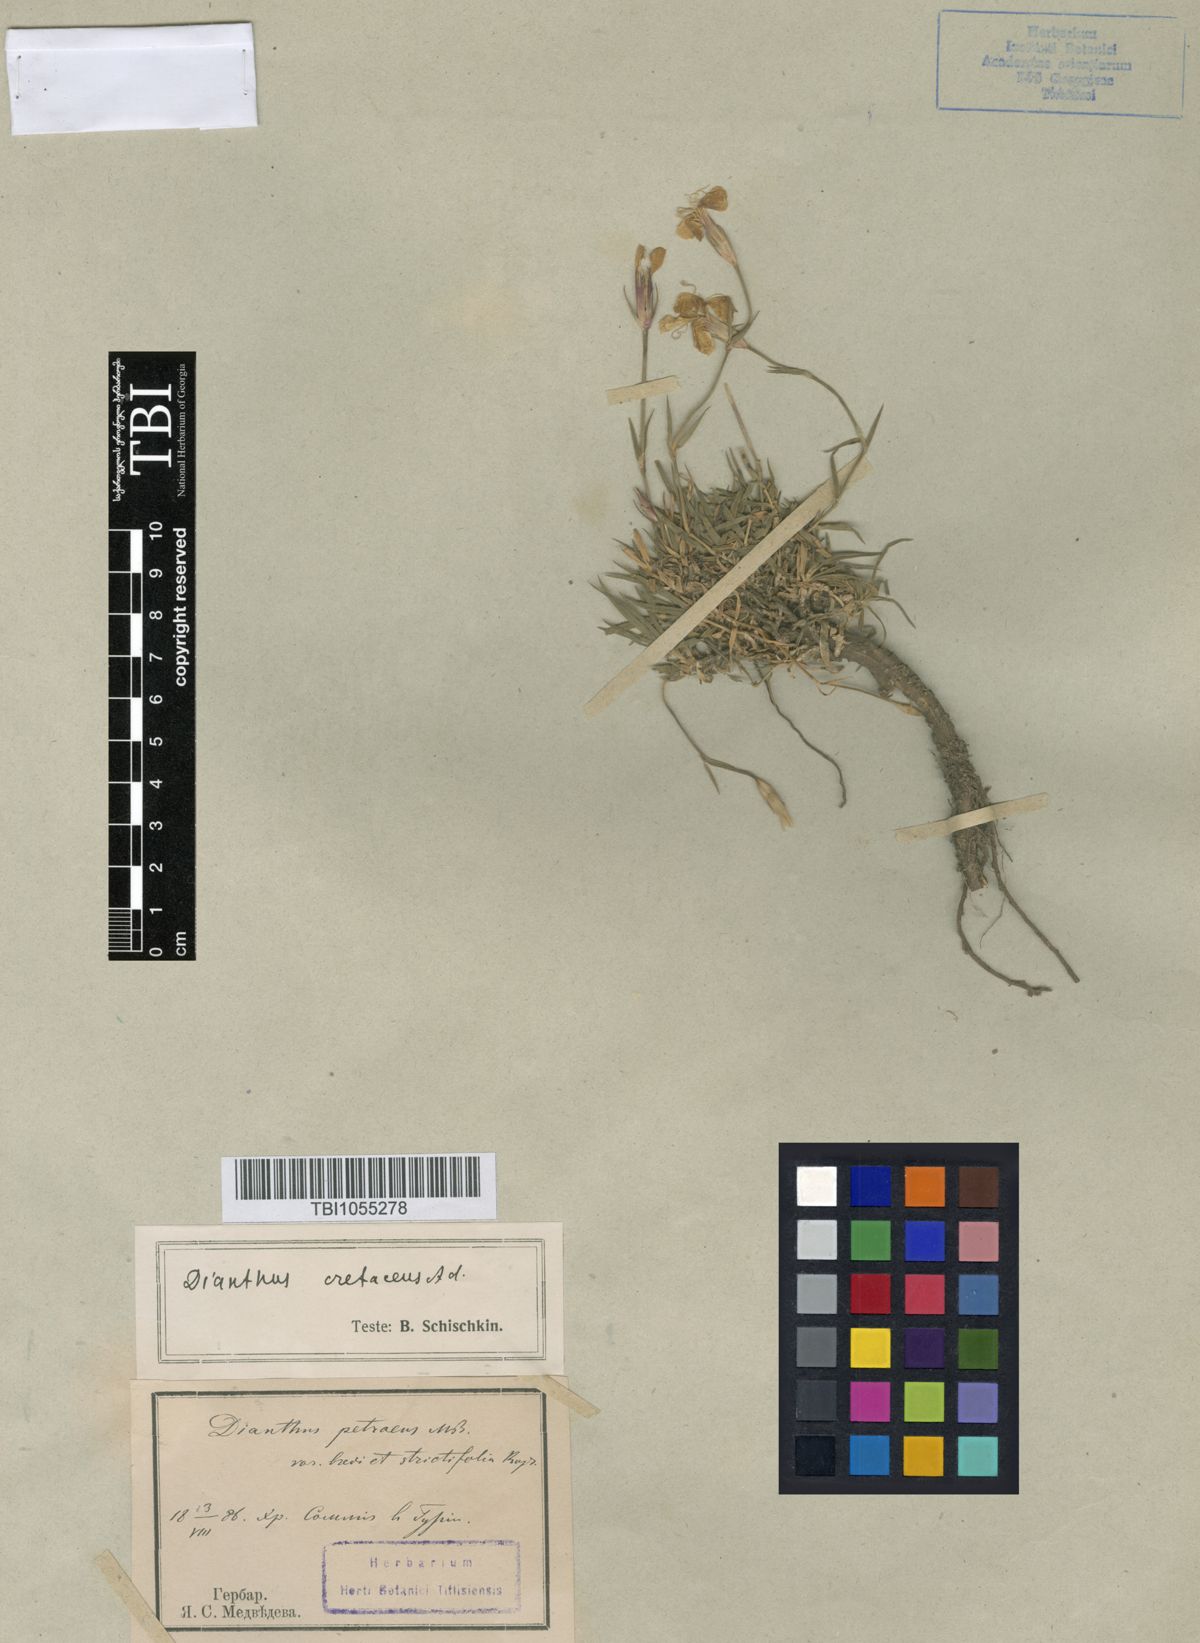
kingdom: Plantae
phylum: Tracheophyta
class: Magnoliopsida
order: Caryophyllales
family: Caryophyllaceae
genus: Dianthus
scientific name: Dianthus cretaceus
